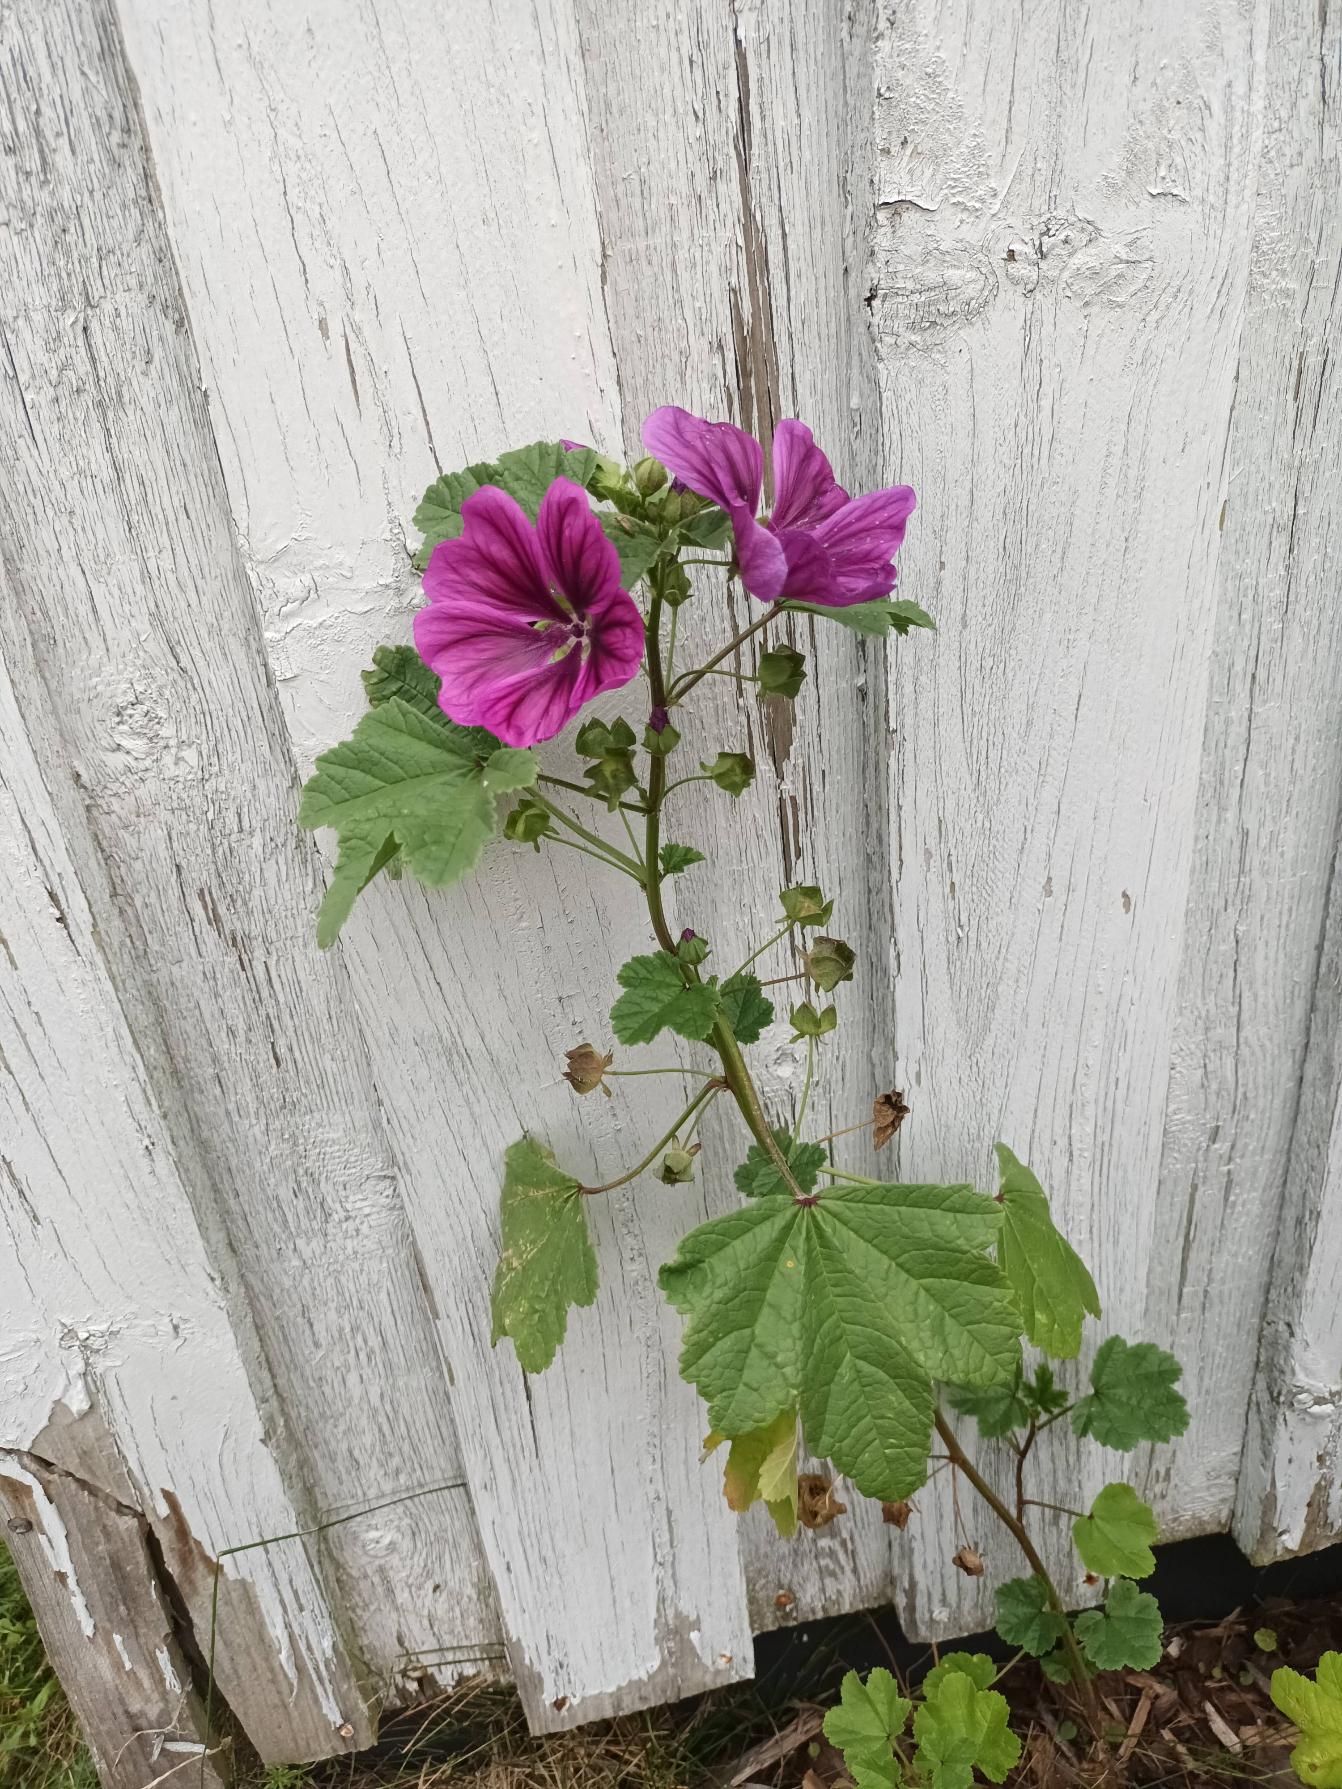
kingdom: Plantae
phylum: Tracheophyta
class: Magnoliopsida
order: Malvales
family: Malvaceae
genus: Malva
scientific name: Malva sylvestris
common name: Stor katost
